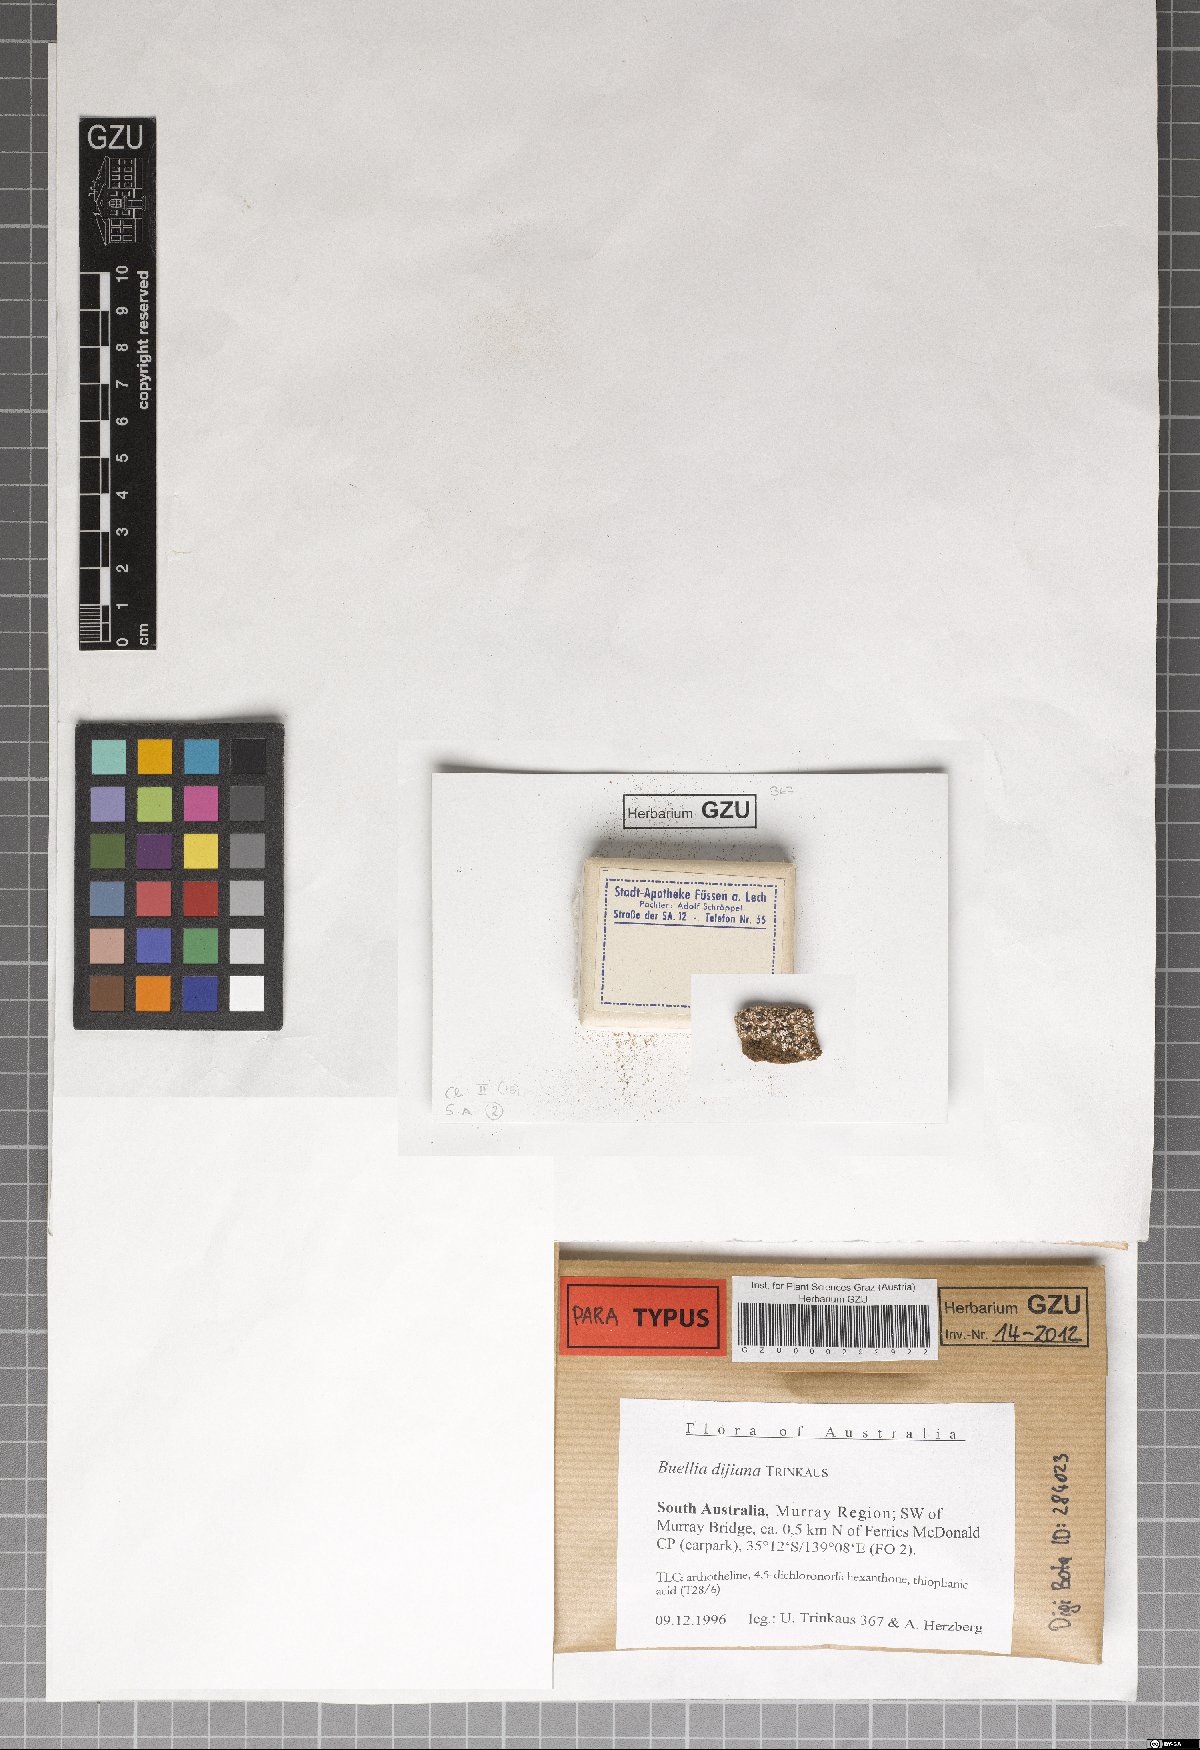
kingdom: Fungi
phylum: Ascomycota
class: Lecanoromycetes
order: Caliciales
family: Caliciaceae
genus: Buellia
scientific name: Buellia dayboroana
